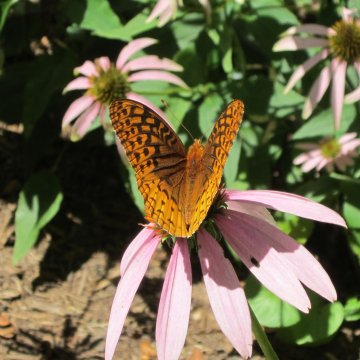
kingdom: Animalia
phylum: Arthropoda
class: Insecta
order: Lepidoptera
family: Nymphalidae
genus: Speyeria
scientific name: Speyeria cybele
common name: Great Spangled Fritillary
